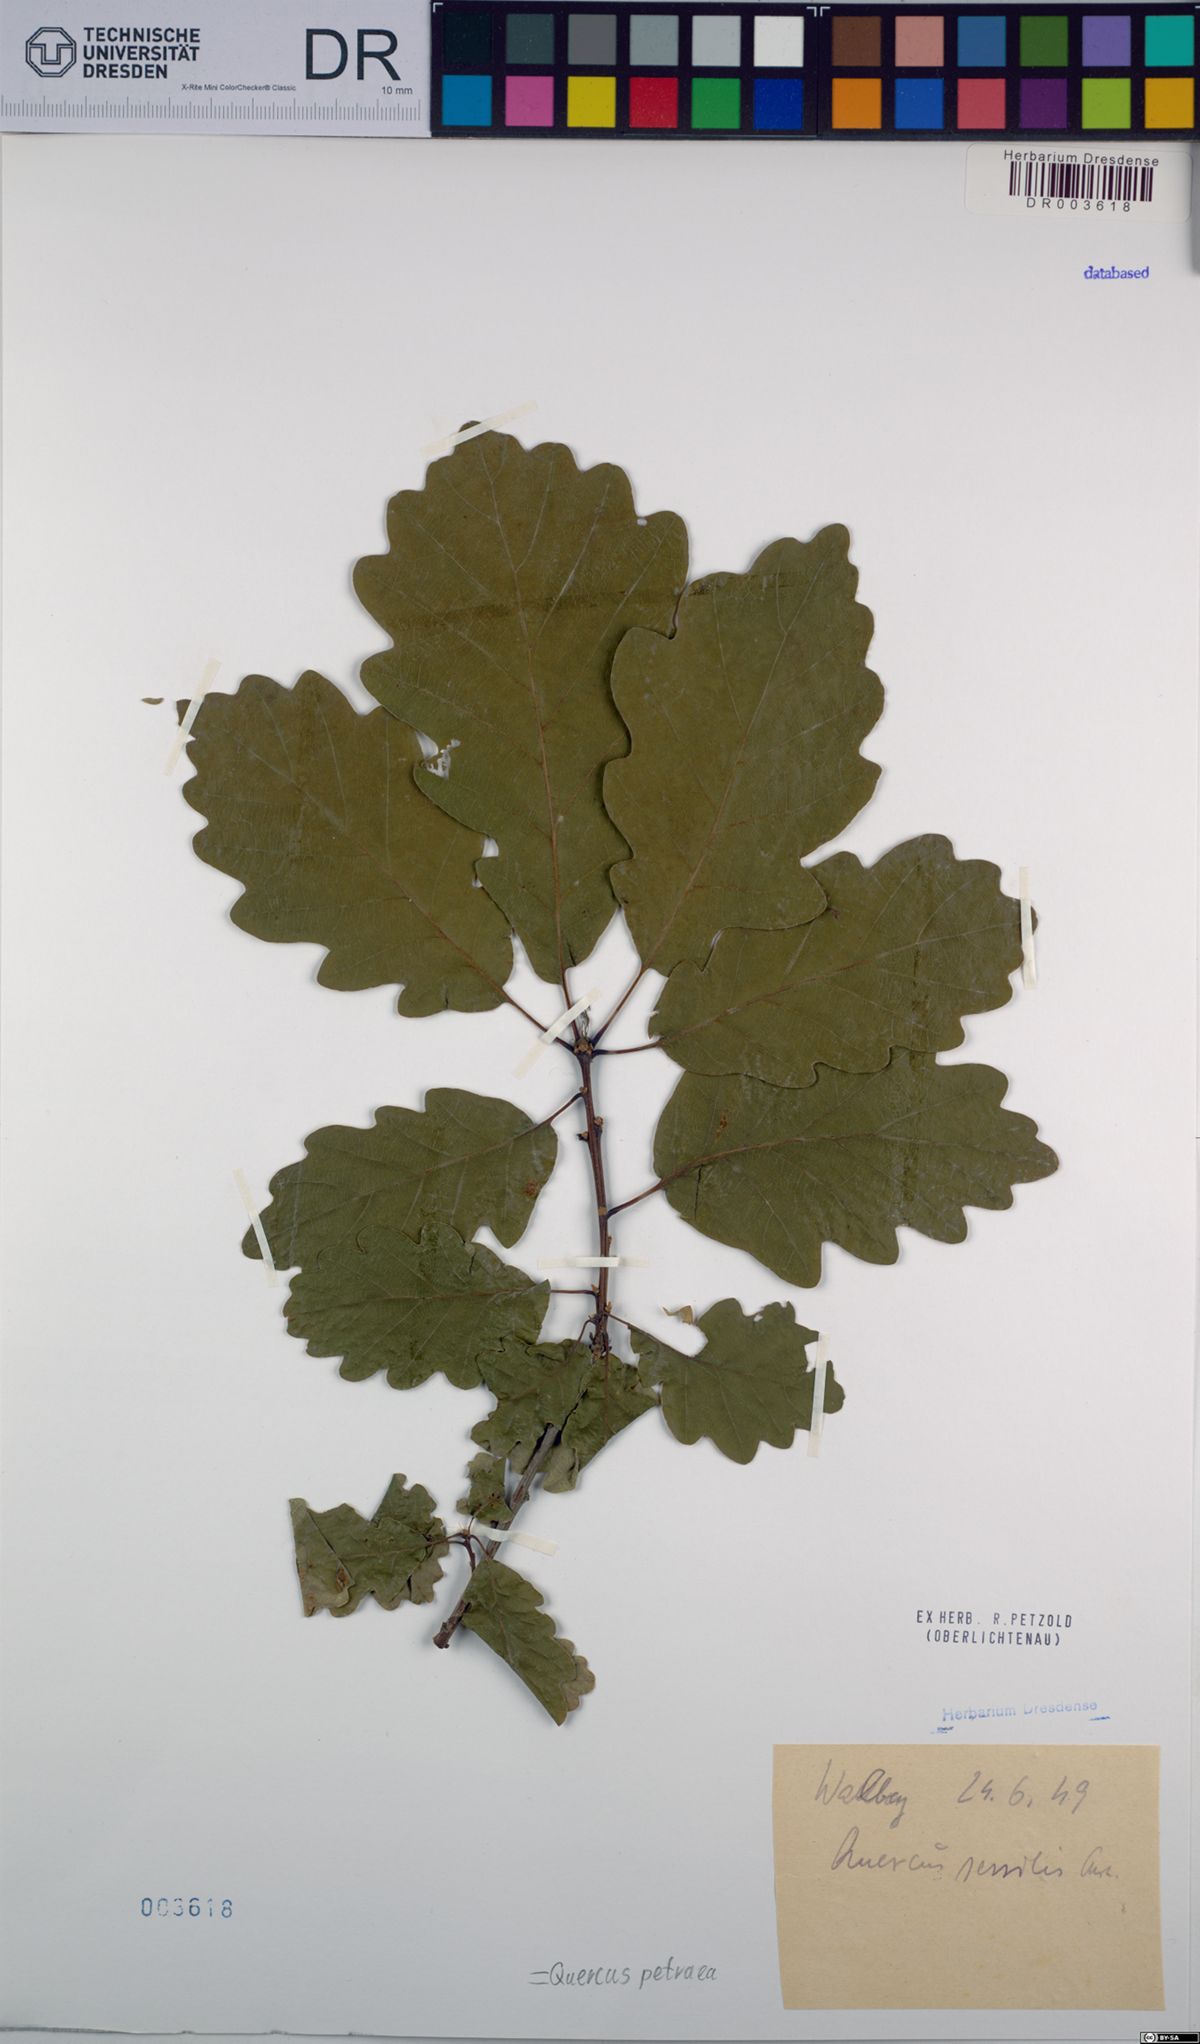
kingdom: Plantae
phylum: Tracheophyta
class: Magnoliopsida
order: Fagales
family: Fagaceae
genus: Quercus
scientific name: Quercus petraea
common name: Sessile oak
